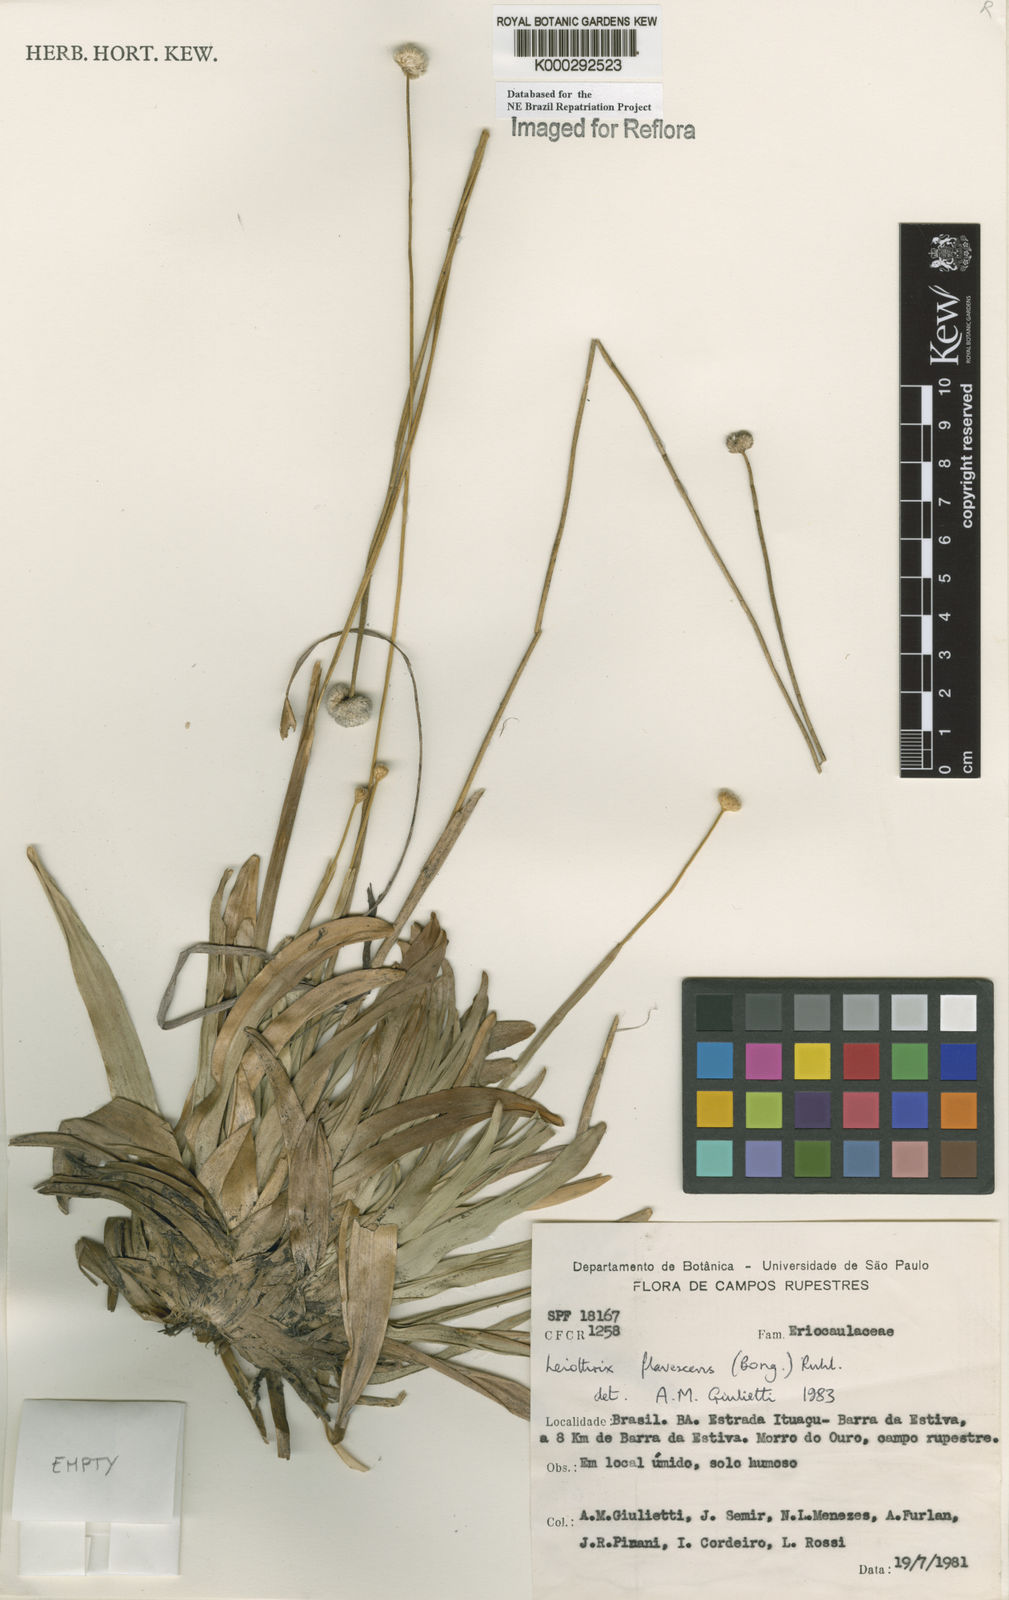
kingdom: Plantae
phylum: Tracheophyta
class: Liliopsida
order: Poales
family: Eriocaulaceae
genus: Leiothrix
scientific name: Leiothrix flavescens
